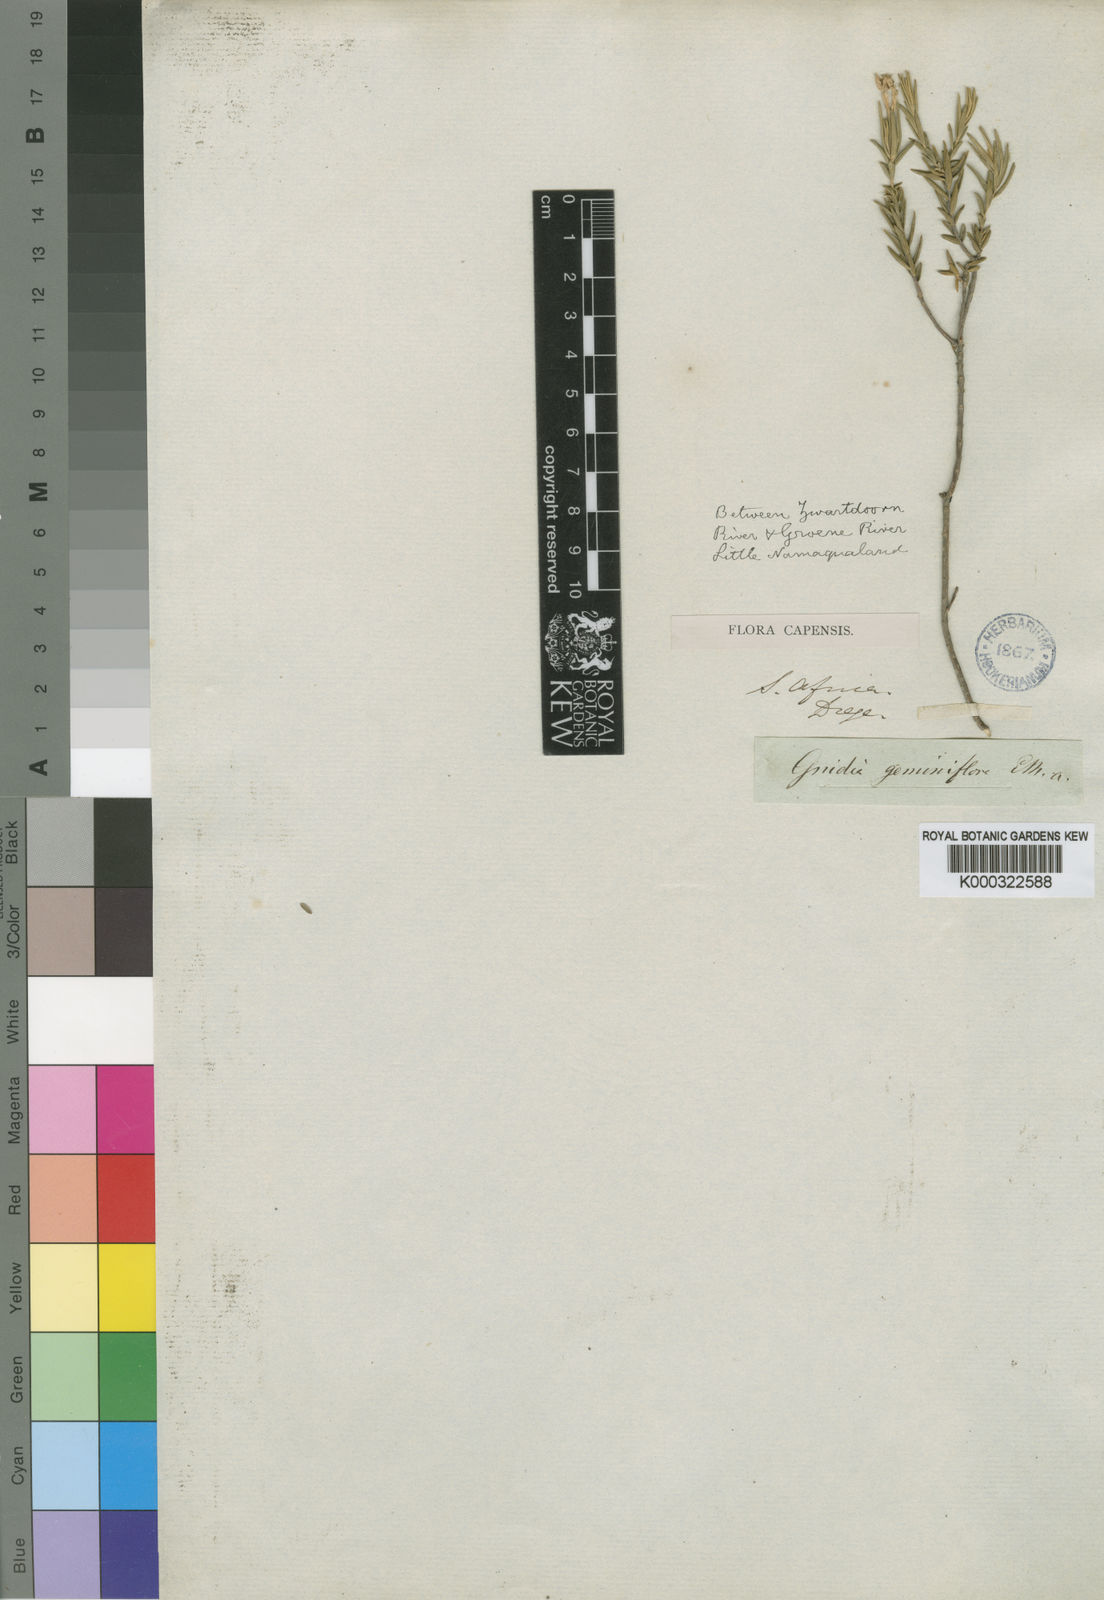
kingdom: Plantae
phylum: Tracheophyta
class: Magnoliopsida
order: Malvales
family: Thymelaeaceae
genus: Gnidia
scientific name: Gnidia geminiflora
